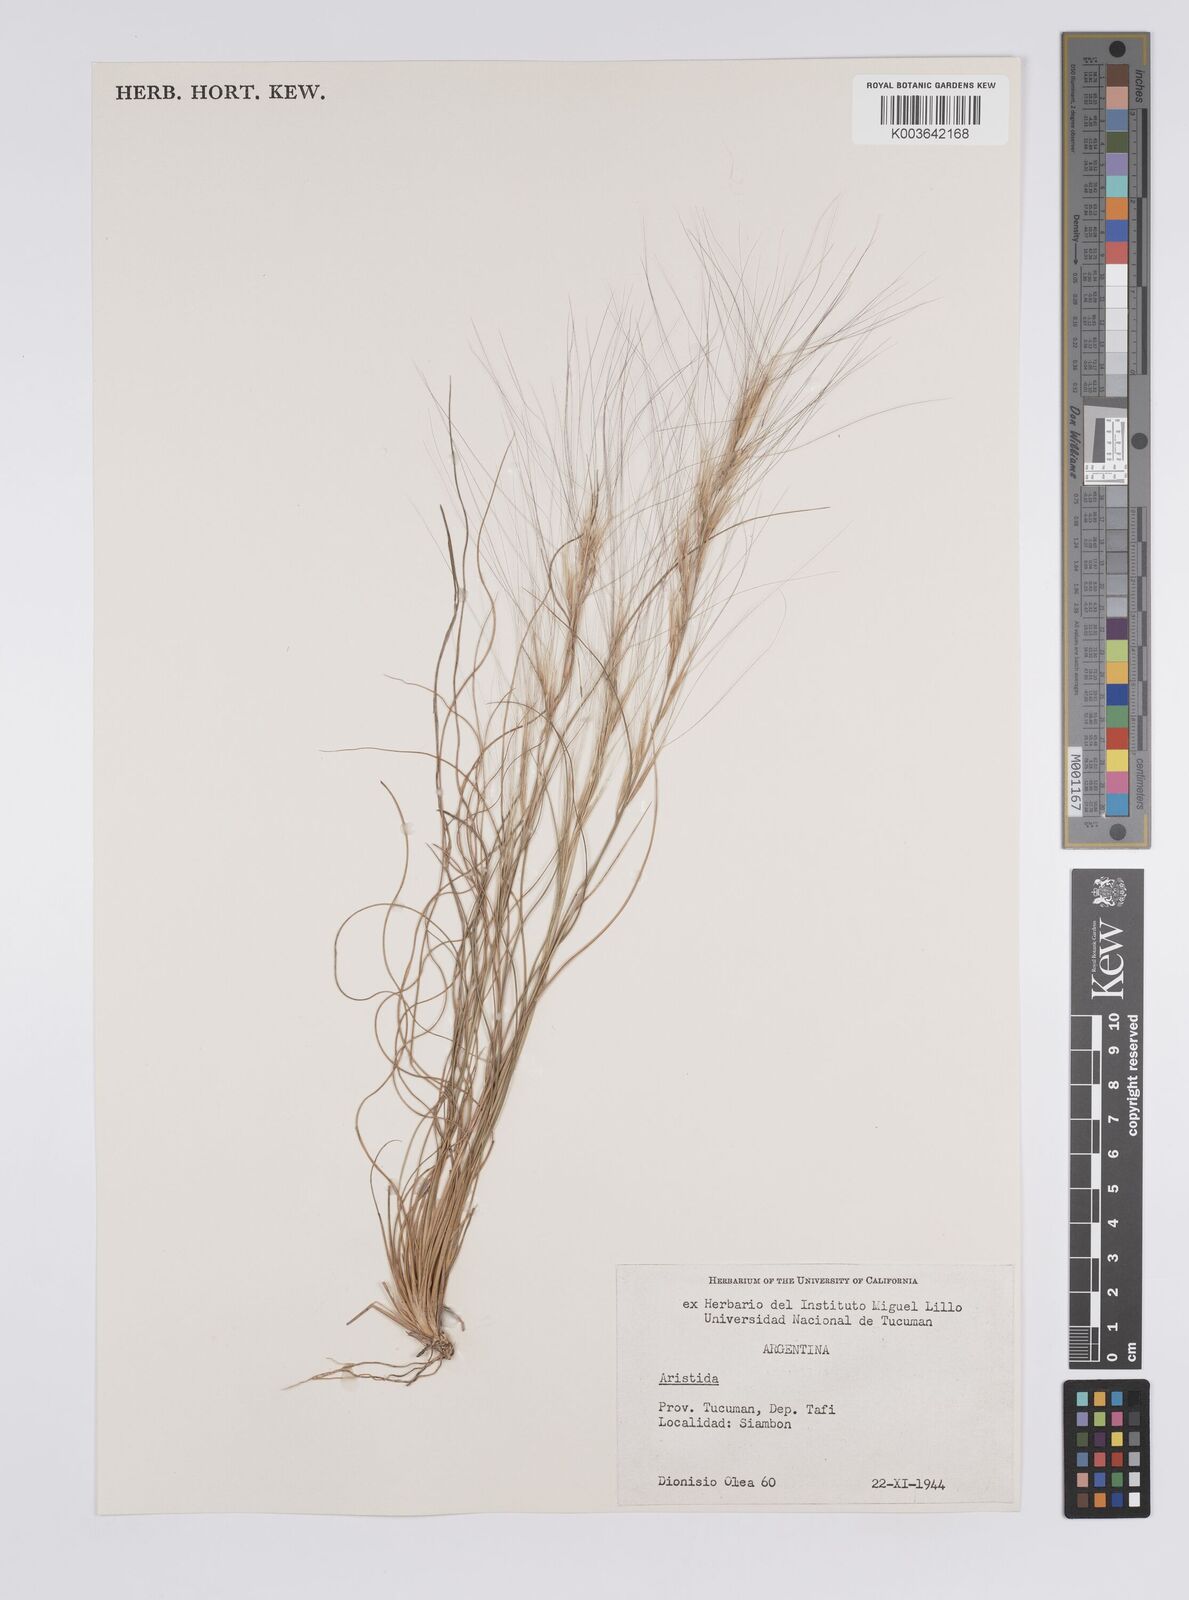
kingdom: Plantae
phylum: Tracheophyta
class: Liliopsida
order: Poales
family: Poaceae
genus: Aristida
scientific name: Aristida
